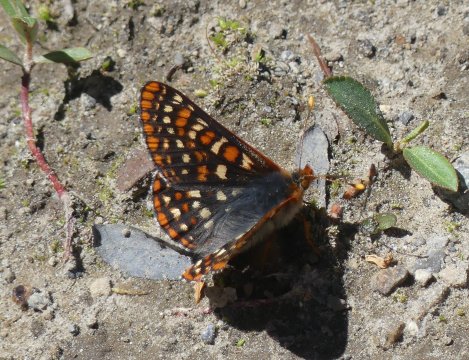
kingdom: Animalia
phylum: Arthropoda
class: Insecta
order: Lepidoptera
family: Nymphalidae
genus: Occidryas
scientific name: Occidryas editha
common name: Edith's Checkerspot
